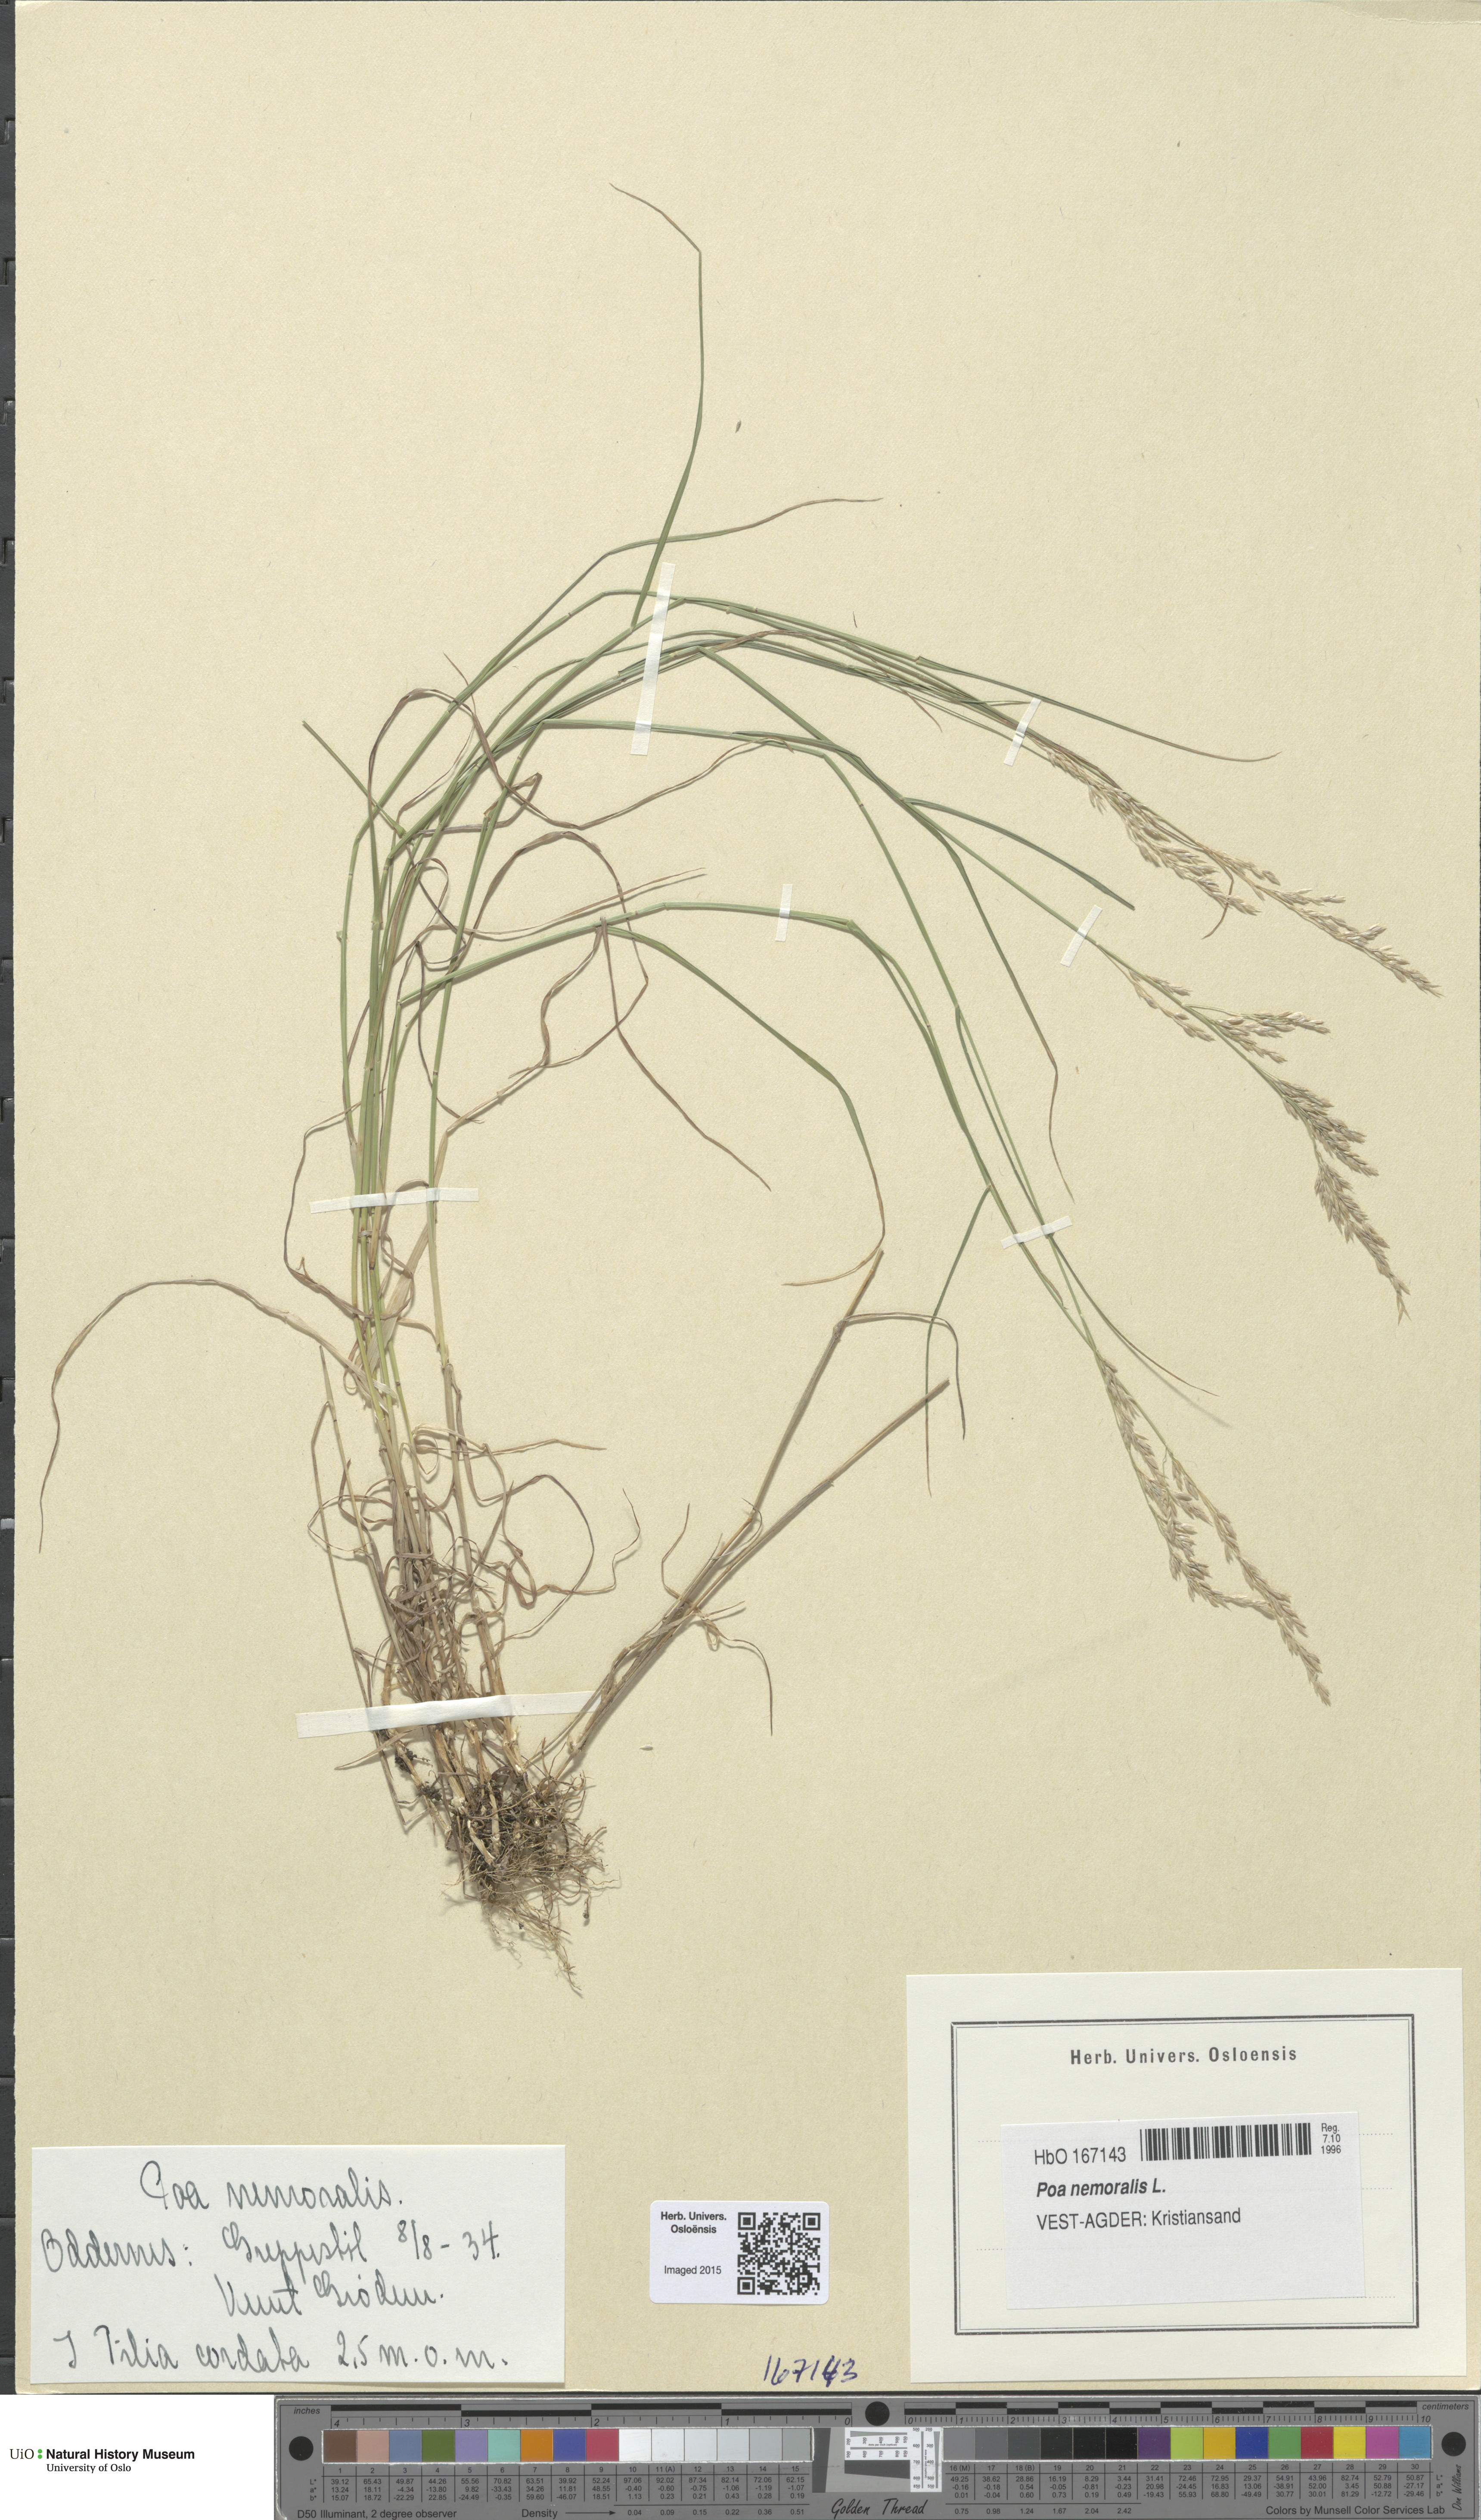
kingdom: Plantae
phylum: Tracheophyta
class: Liliopsida
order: Poales
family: Poaceae
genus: Poa
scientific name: Poa nemoralis
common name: Wood bluegrass
